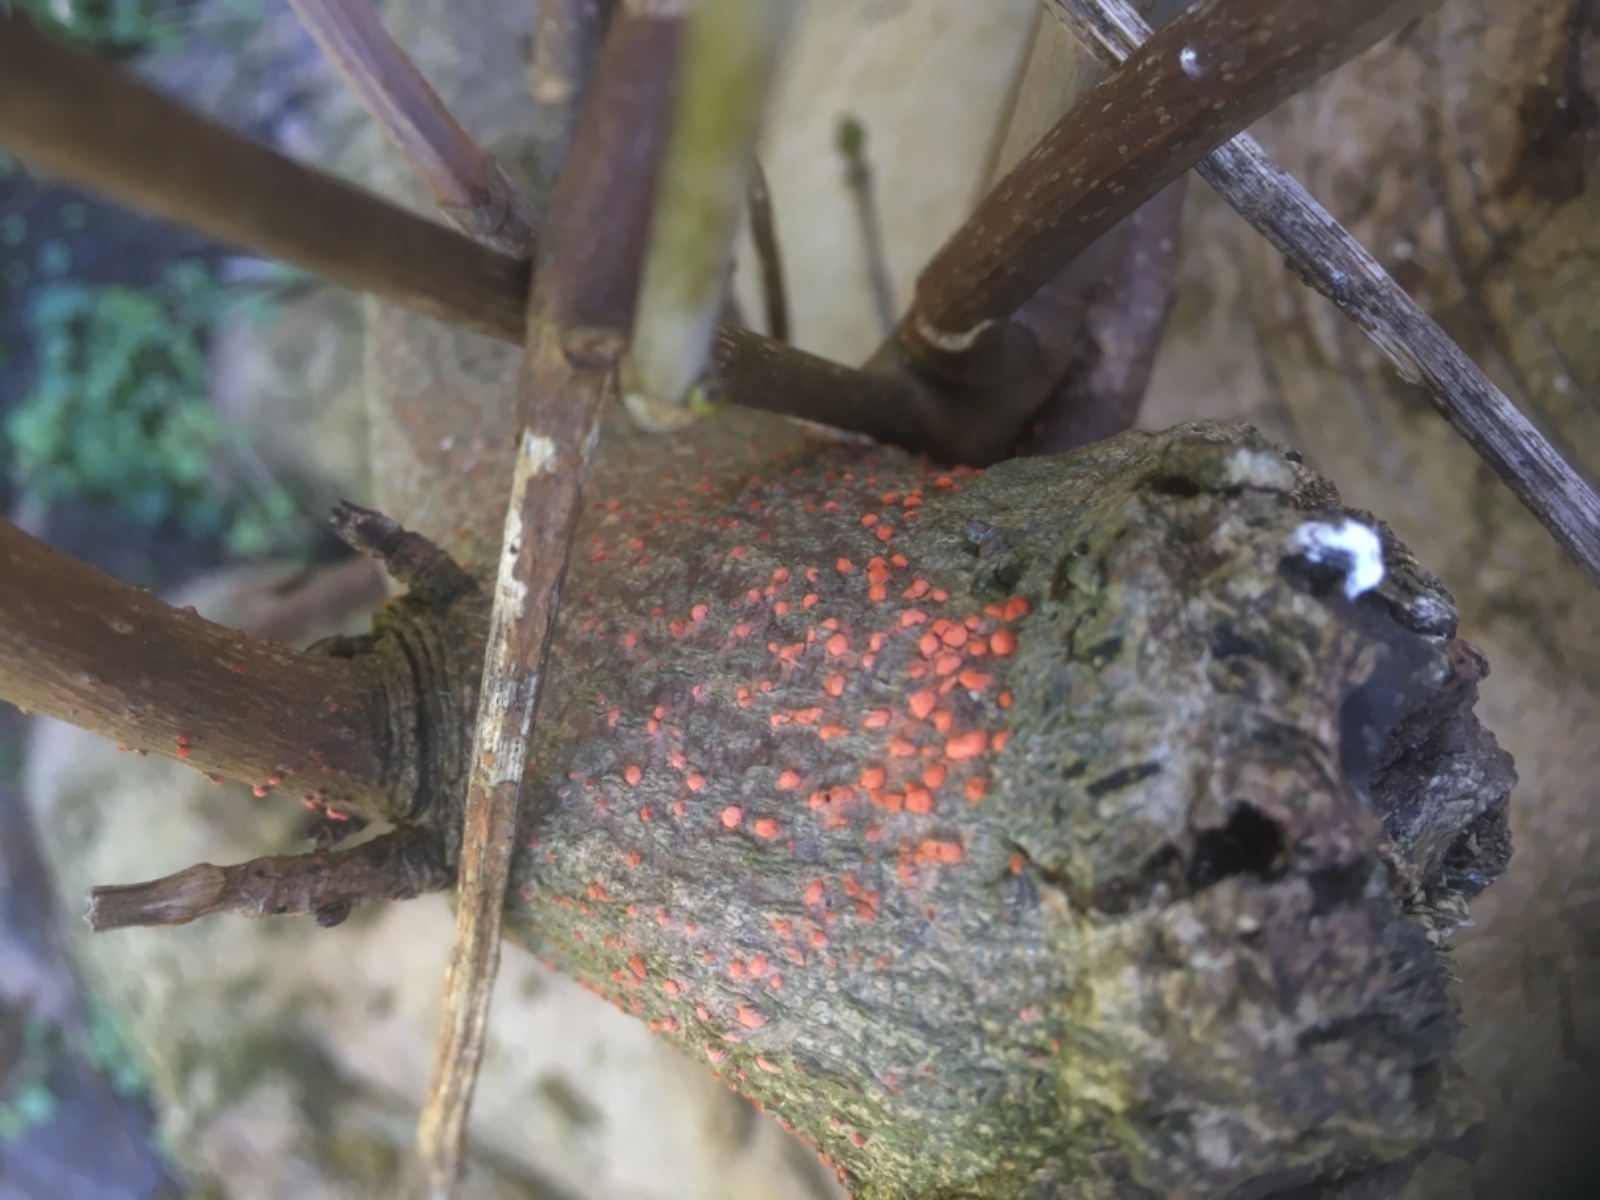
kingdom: Fungi
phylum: Ascomycota
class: Sordariomycetes
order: Hypocreales
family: Nectriaceae
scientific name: Nectriaceae
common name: cinnobersvampfamilien
